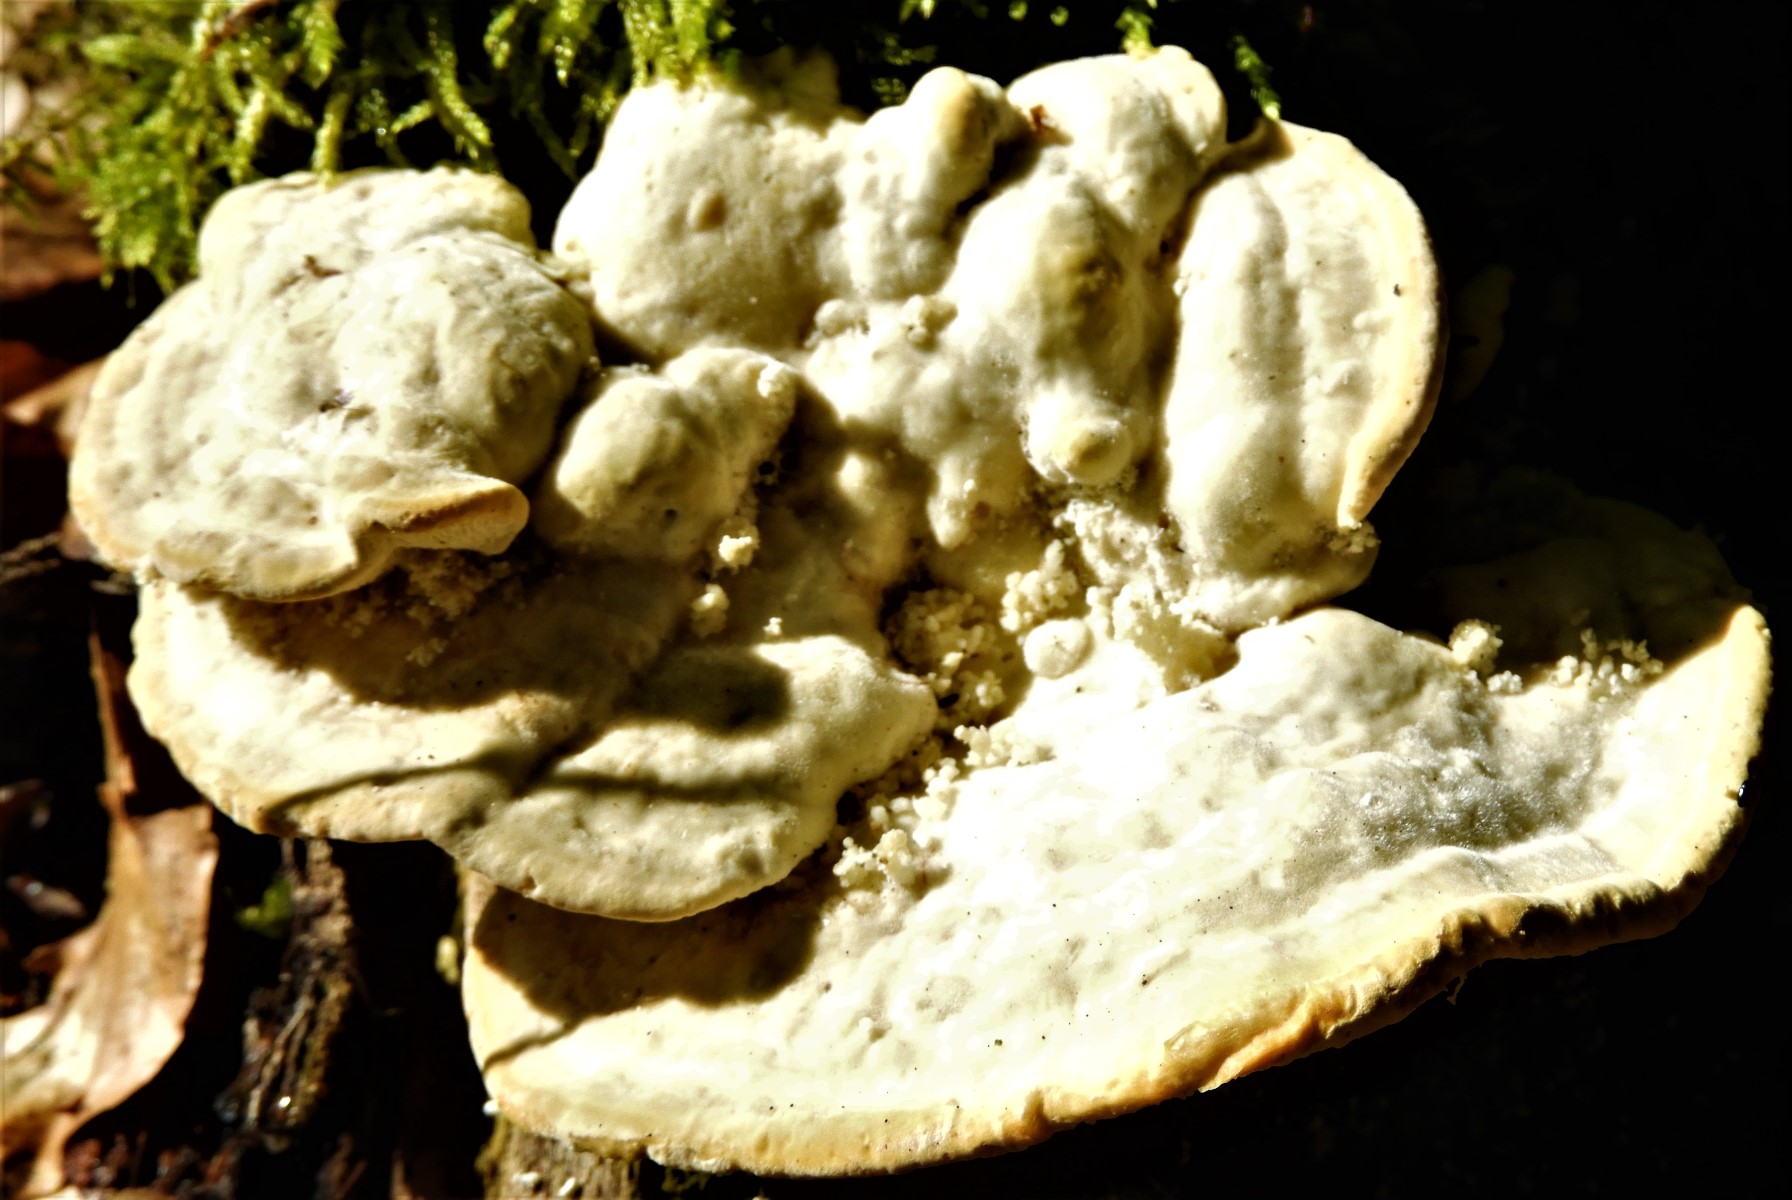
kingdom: Fungi
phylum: Basidiomycota
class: Agaricomycetes
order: Polyporales
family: Polyporaceae
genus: Trametes
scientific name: Trametes gibbosa
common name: puklet læderporesvamp
